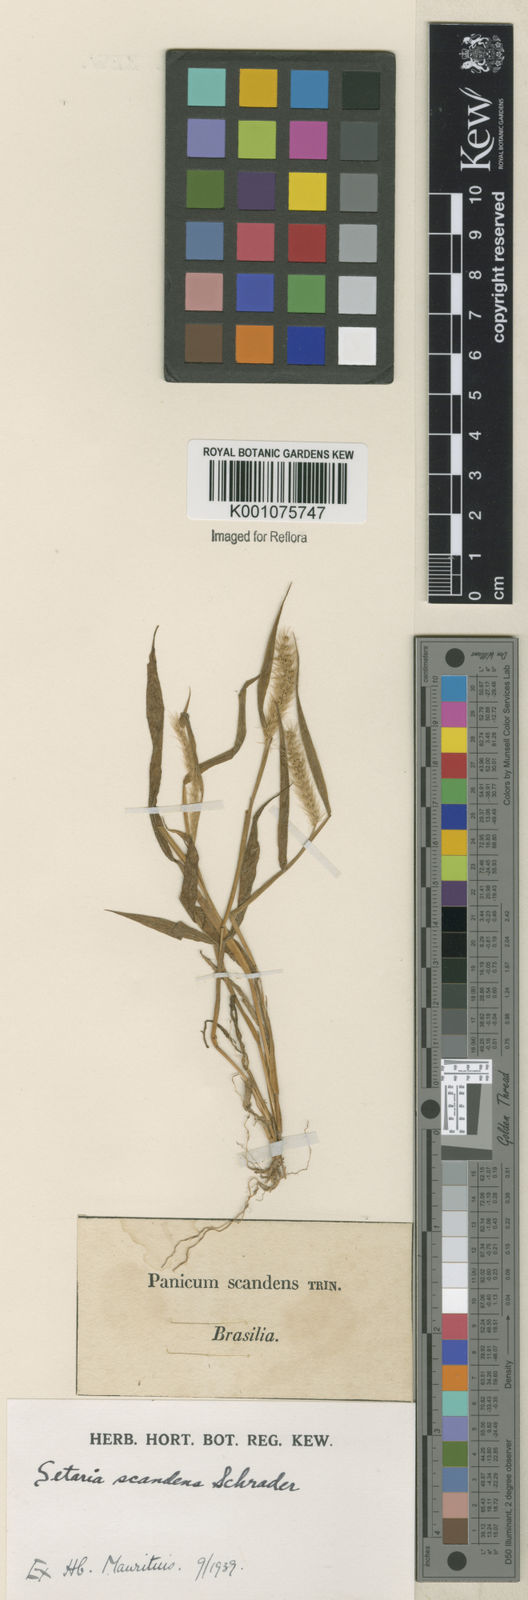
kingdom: Plantae
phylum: Tracheophyta
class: Liliopsida
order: Poales
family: Poaceae
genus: Setaria
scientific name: Setaria scandens
